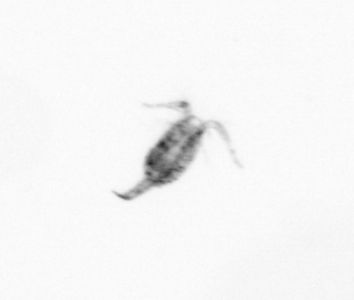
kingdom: Animalia
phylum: Arthropoda
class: Copepoda
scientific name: Copepoda
